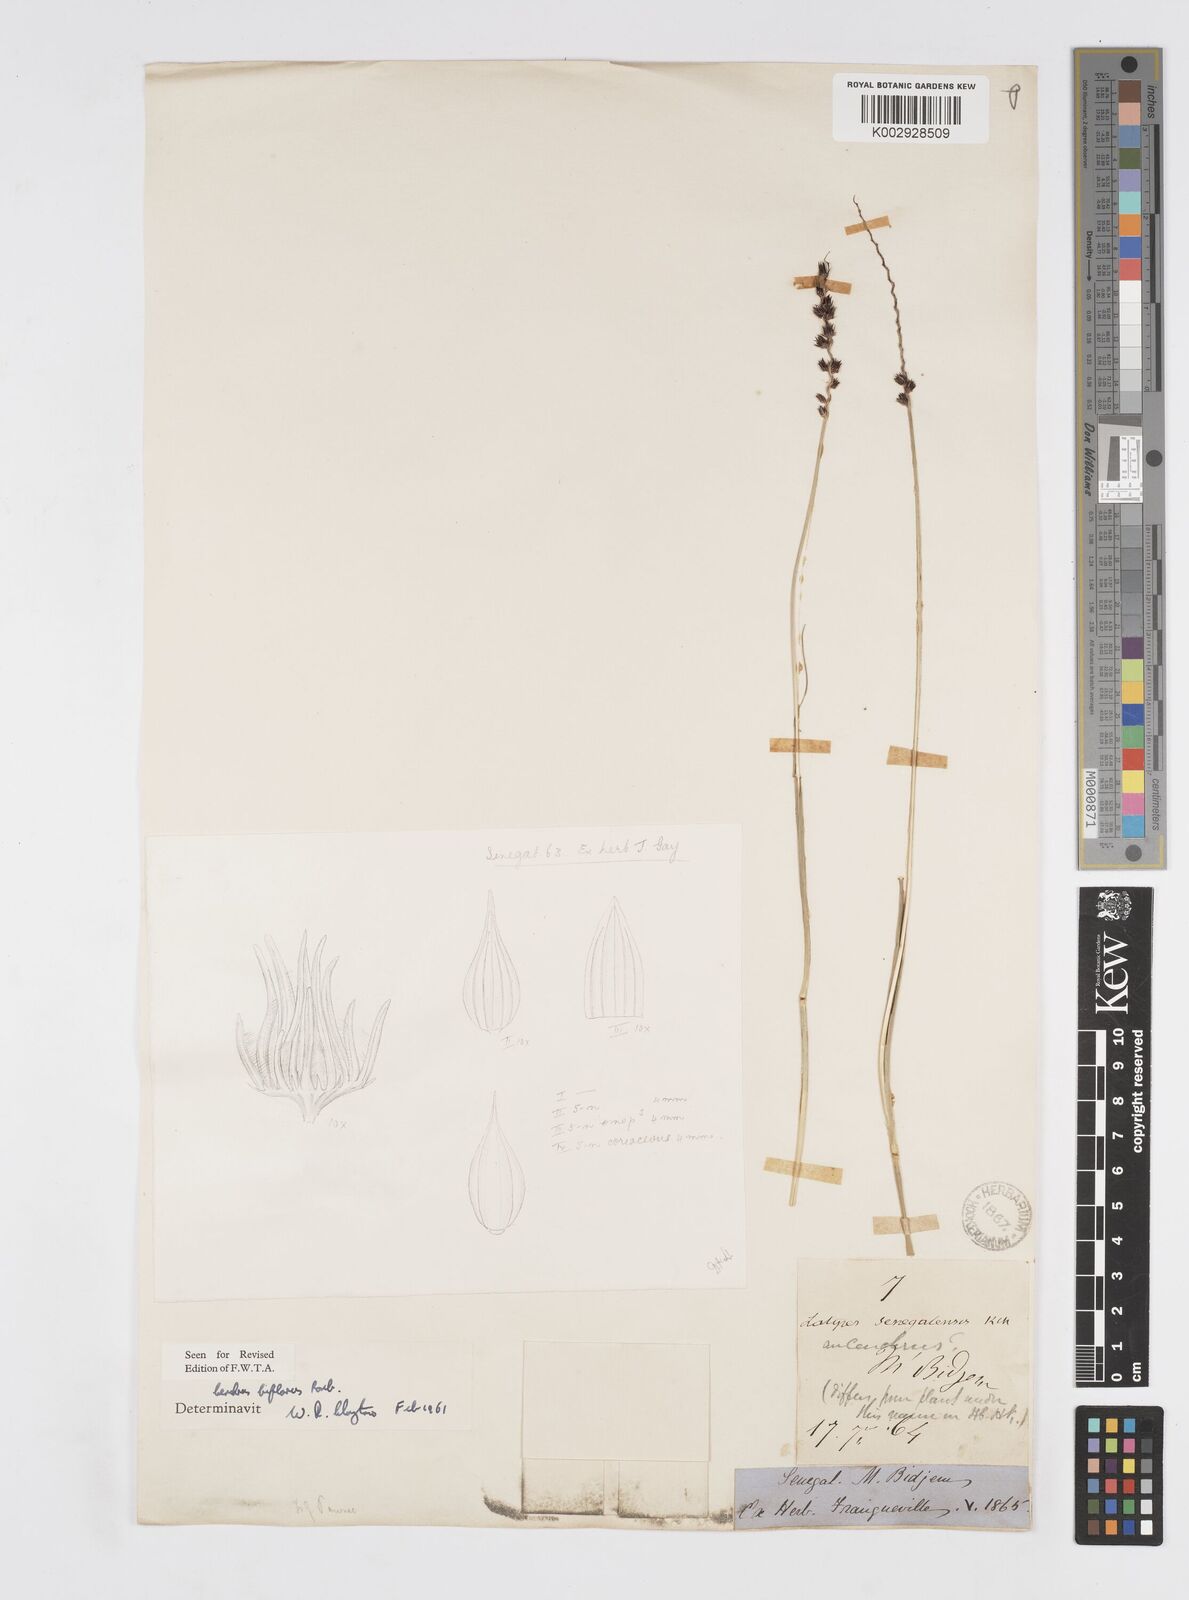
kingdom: Plantae
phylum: Tracheophyta
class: Liliopsida
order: Poales
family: Poaceae
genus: Cenchrus
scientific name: Cenchrus biflorus
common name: Indian sandbur
